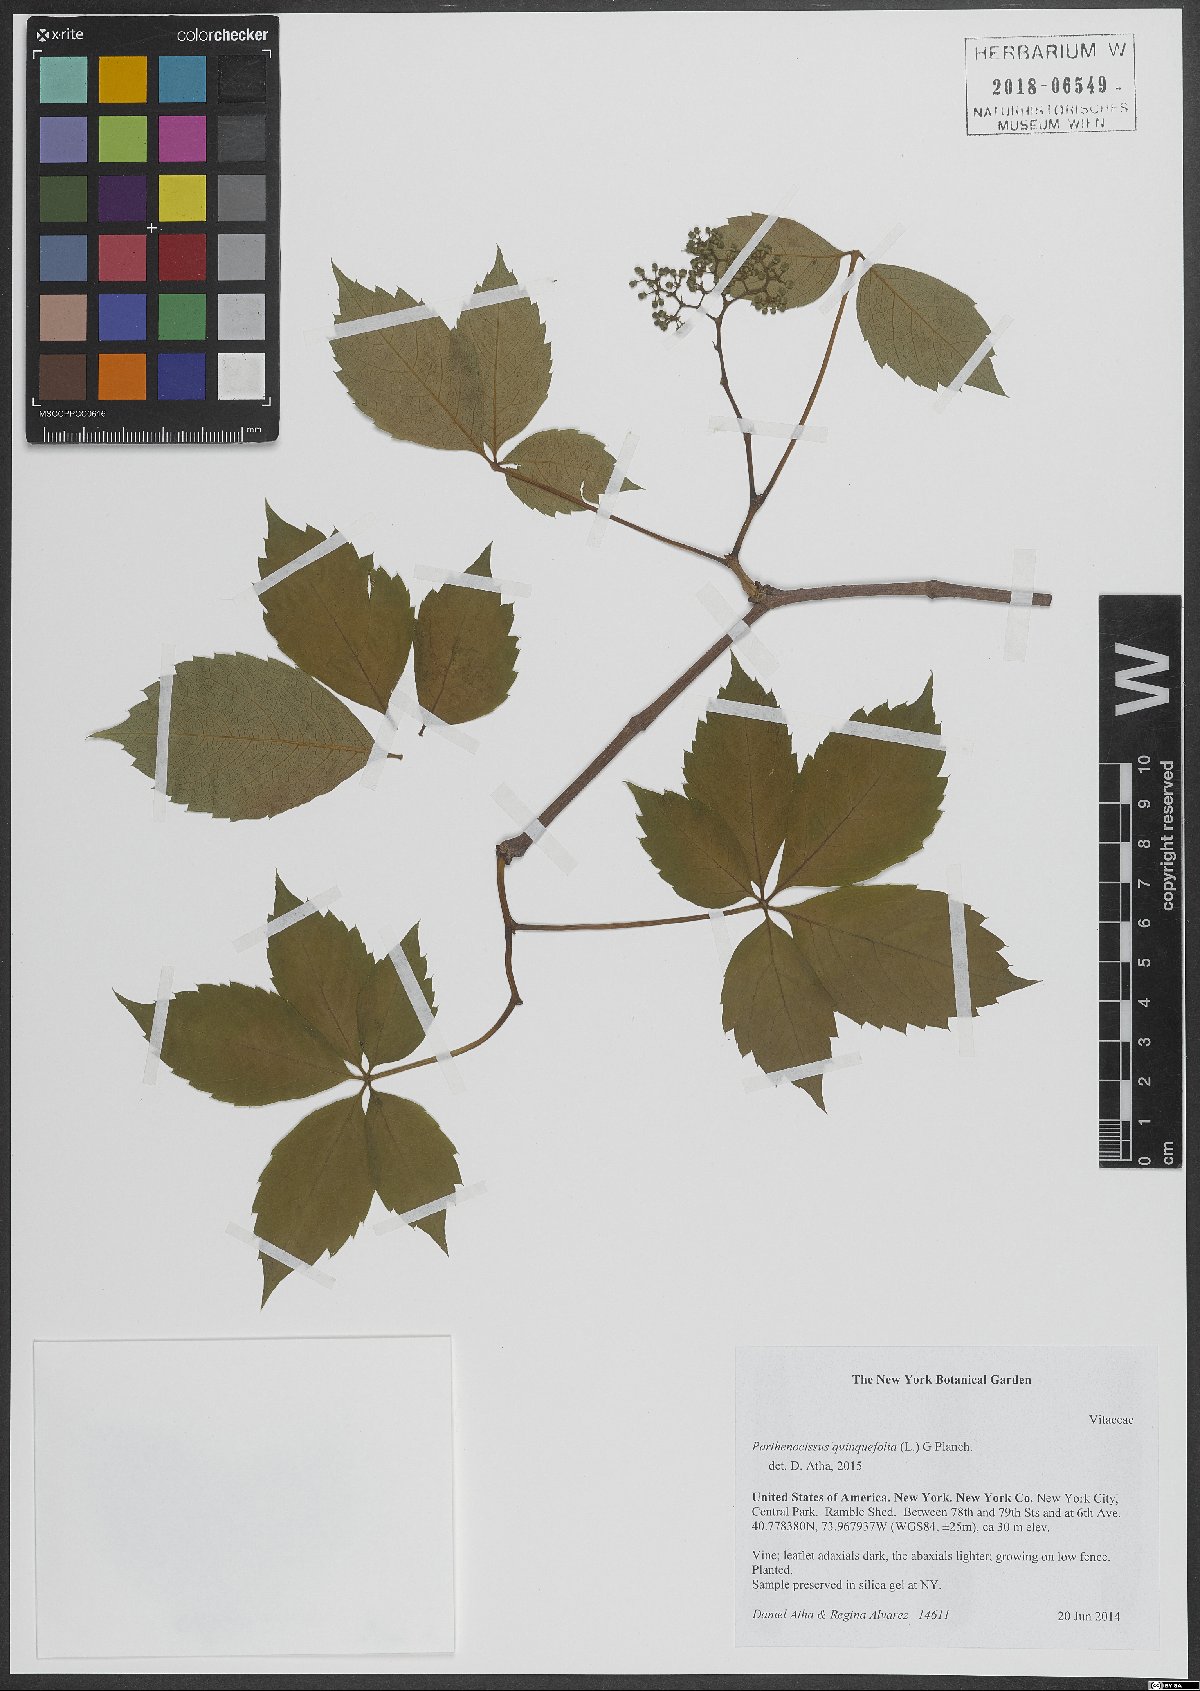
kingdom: Plantae
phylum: Tracheophyta
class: Magnoliopsida
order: Vitales
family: Vitaceae
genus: Parthenocissus
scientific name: Parthenocissus quinquefolia
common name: Virginia-creeper
